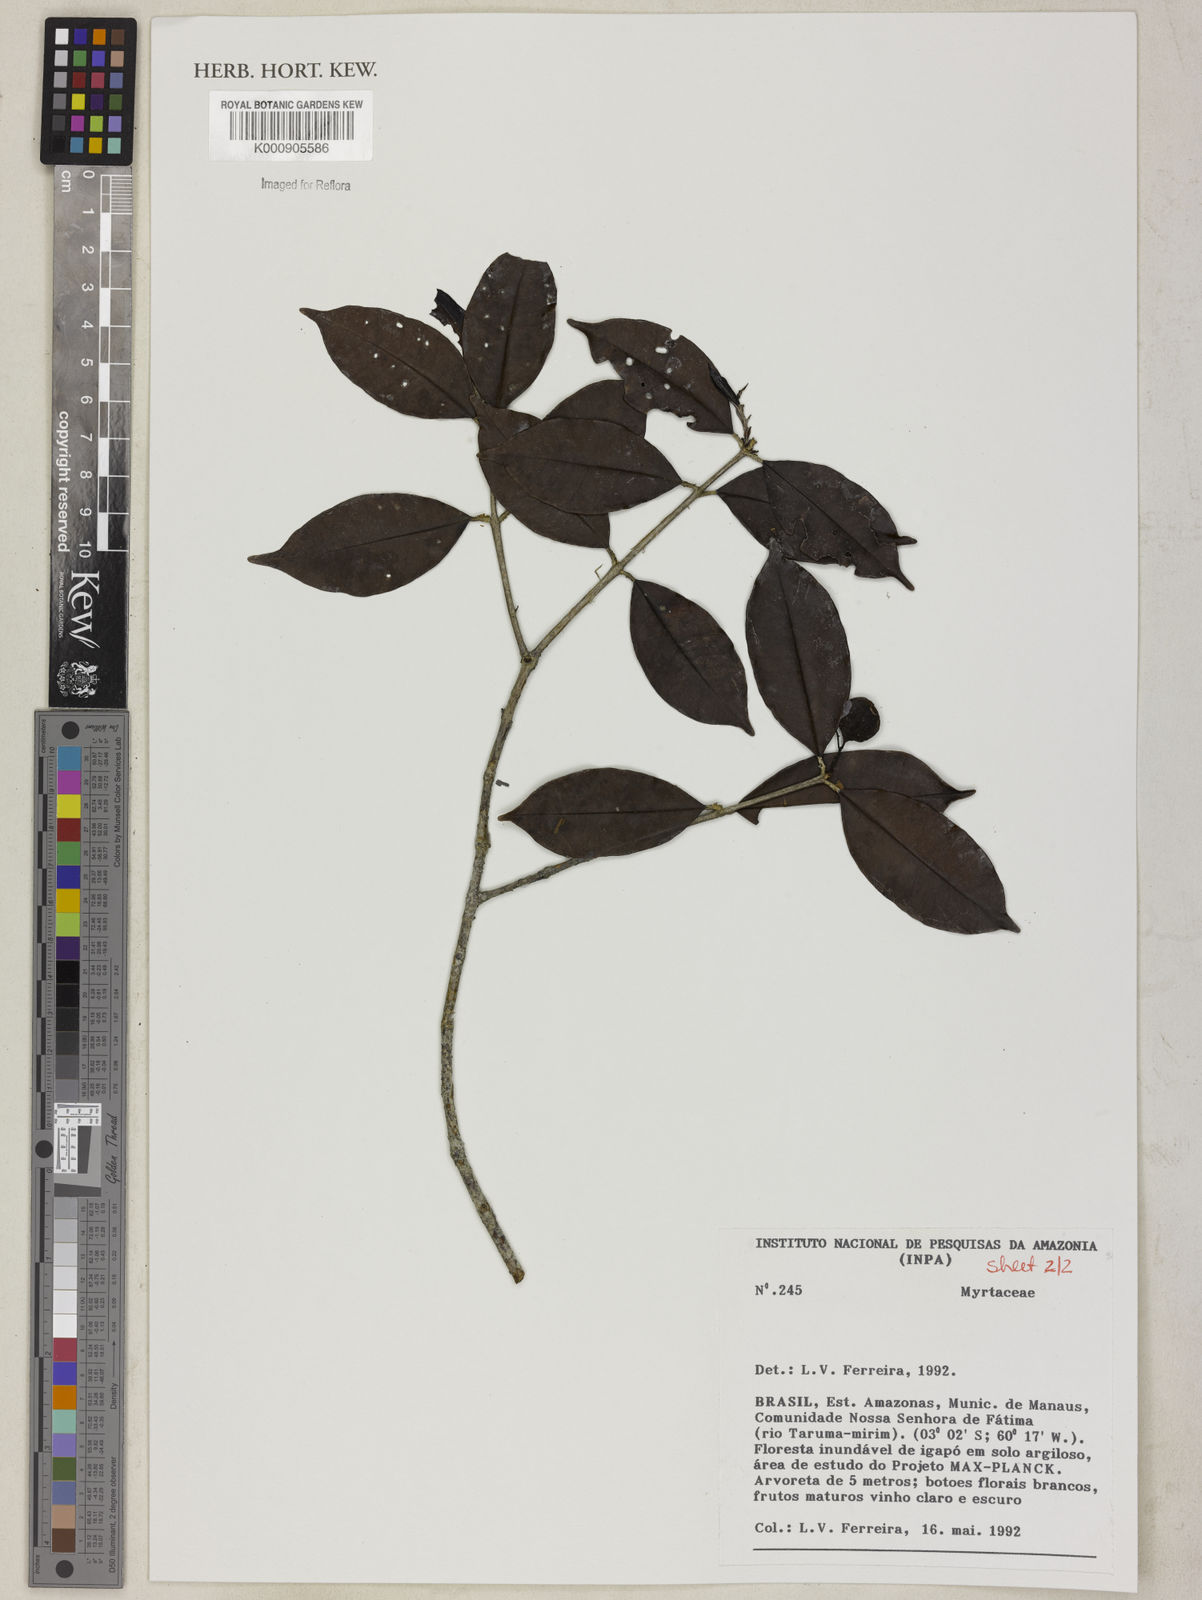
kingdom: Plantae
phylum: Tracheophyta
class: Magnoliopsida
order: Myrtales
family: Myrtaceae
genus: Myrcia
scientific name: Myrcia umbraticola
